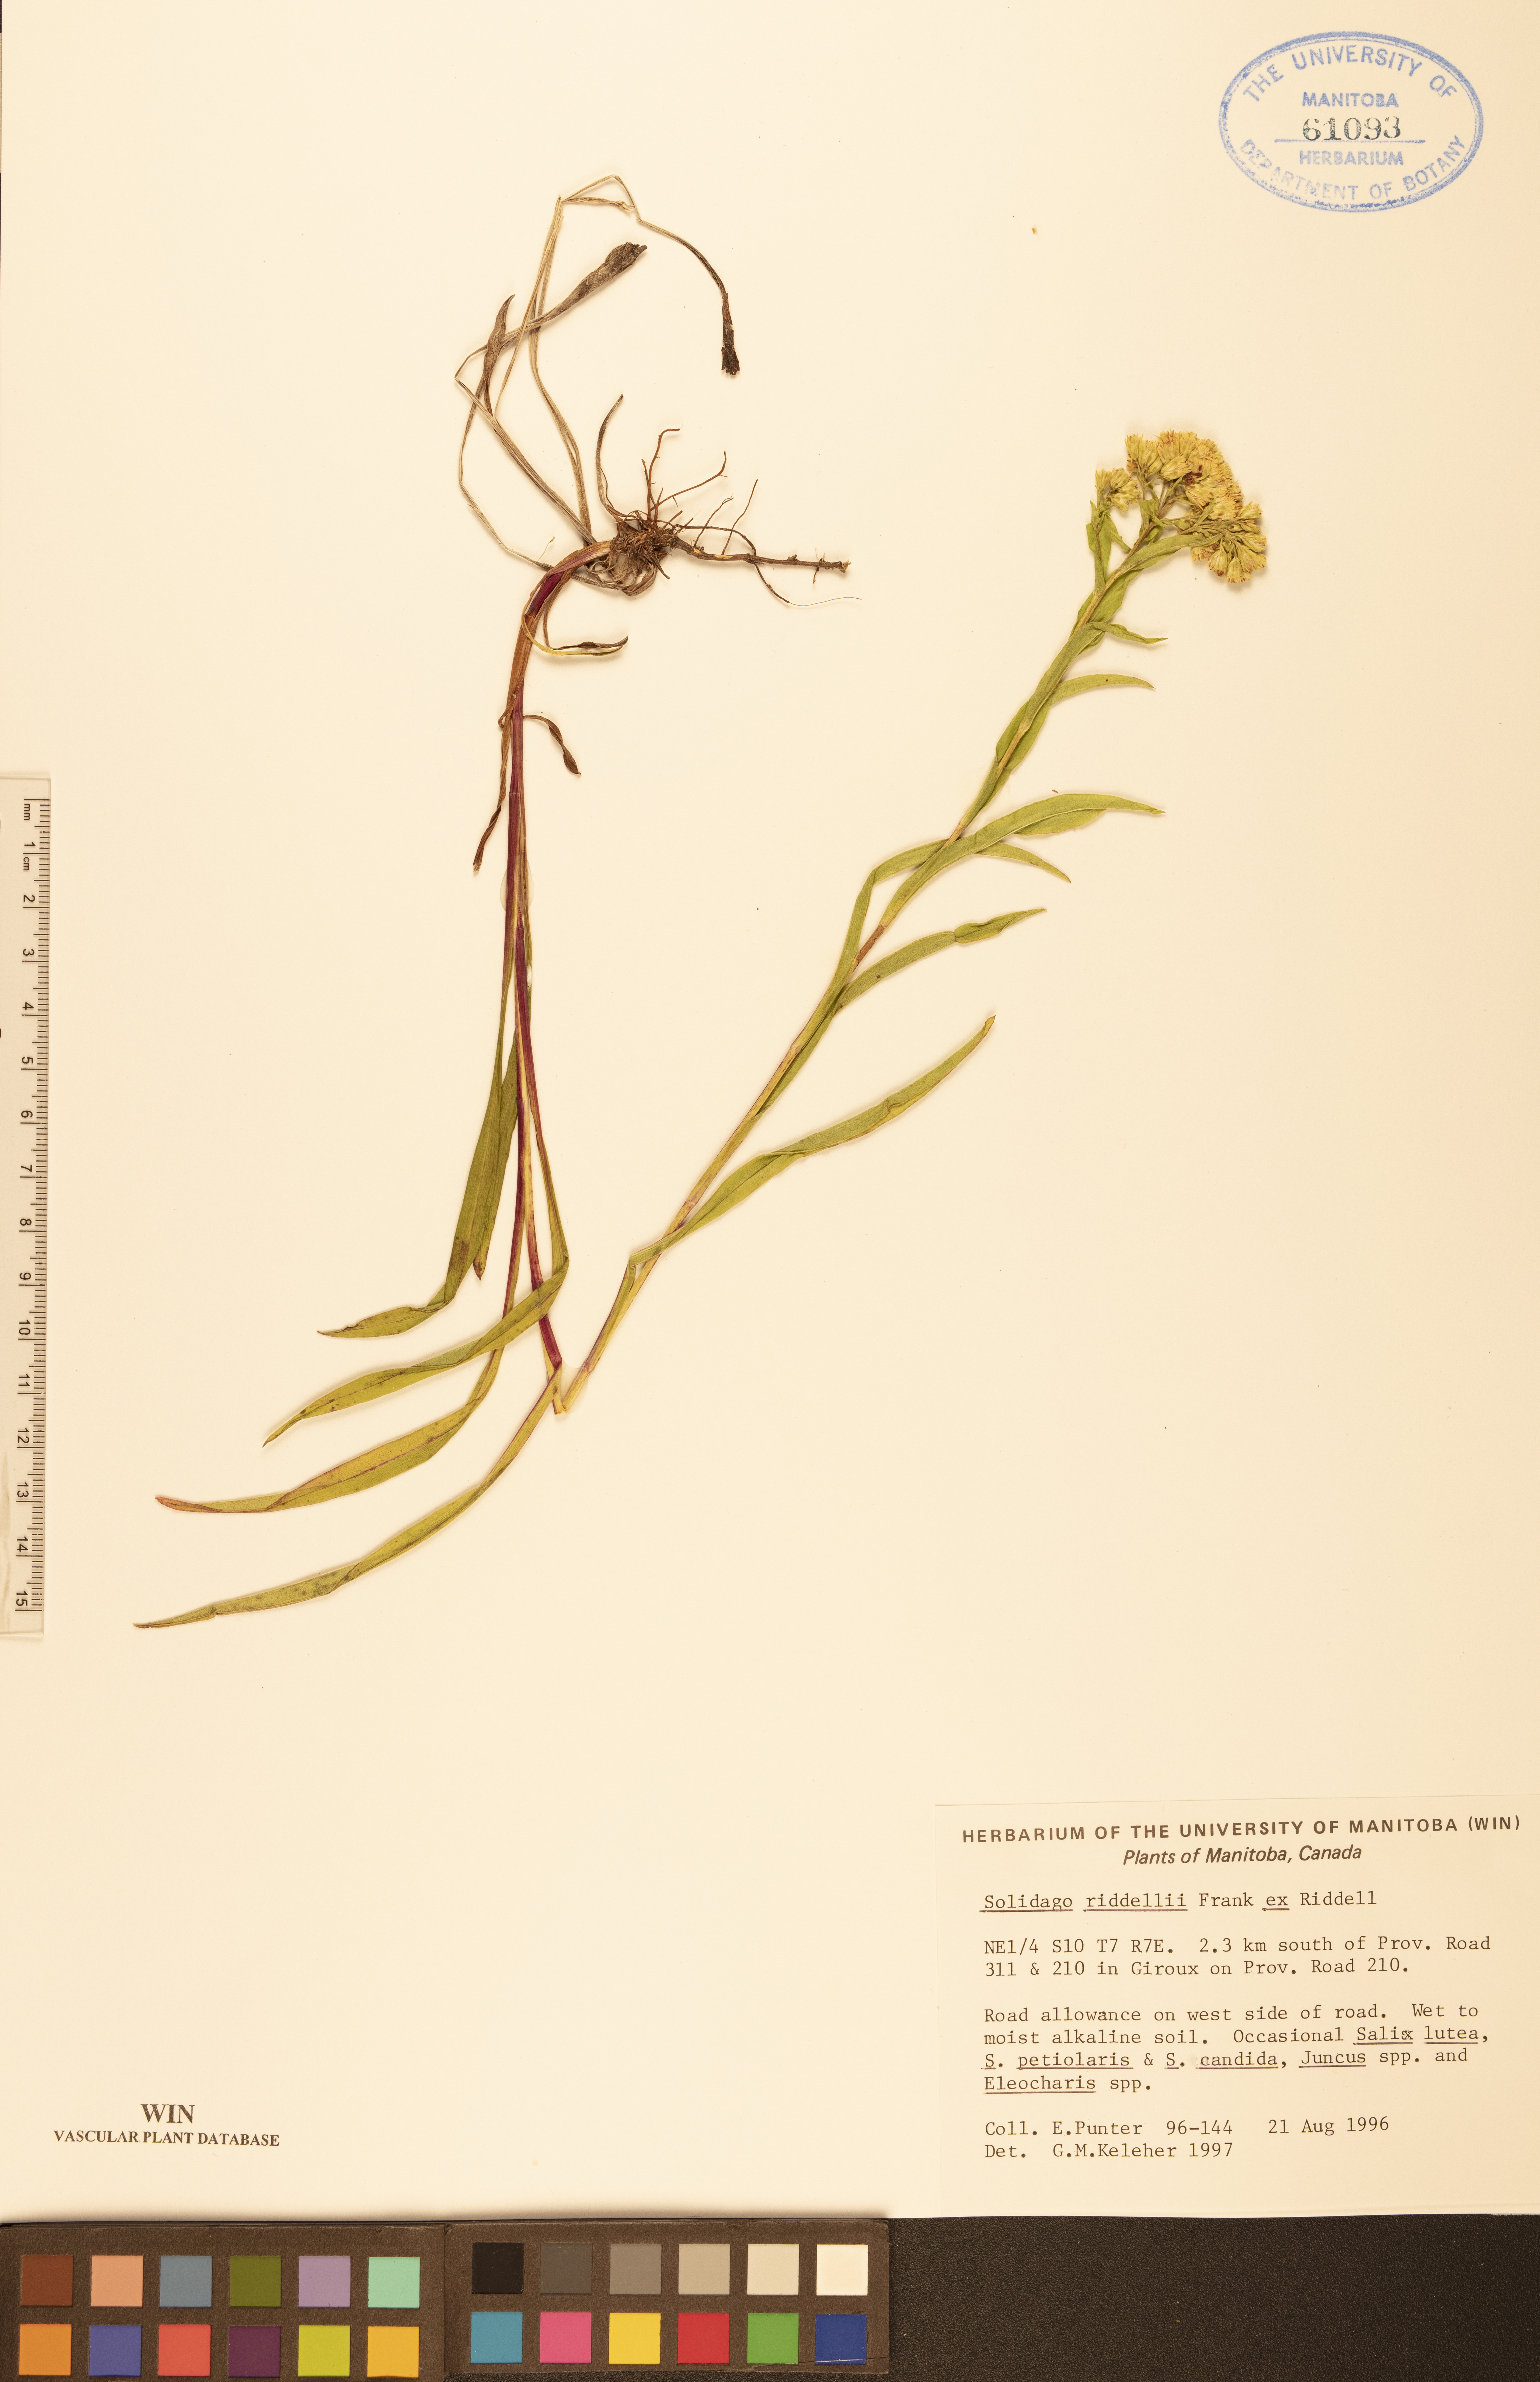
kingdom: Plantae
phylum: Tracheophyta
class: Magnoliopsida
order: Asterales
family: Asteraceae
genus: Solidago
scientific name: Solidago riddellii
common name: Riddell's goldenrod
